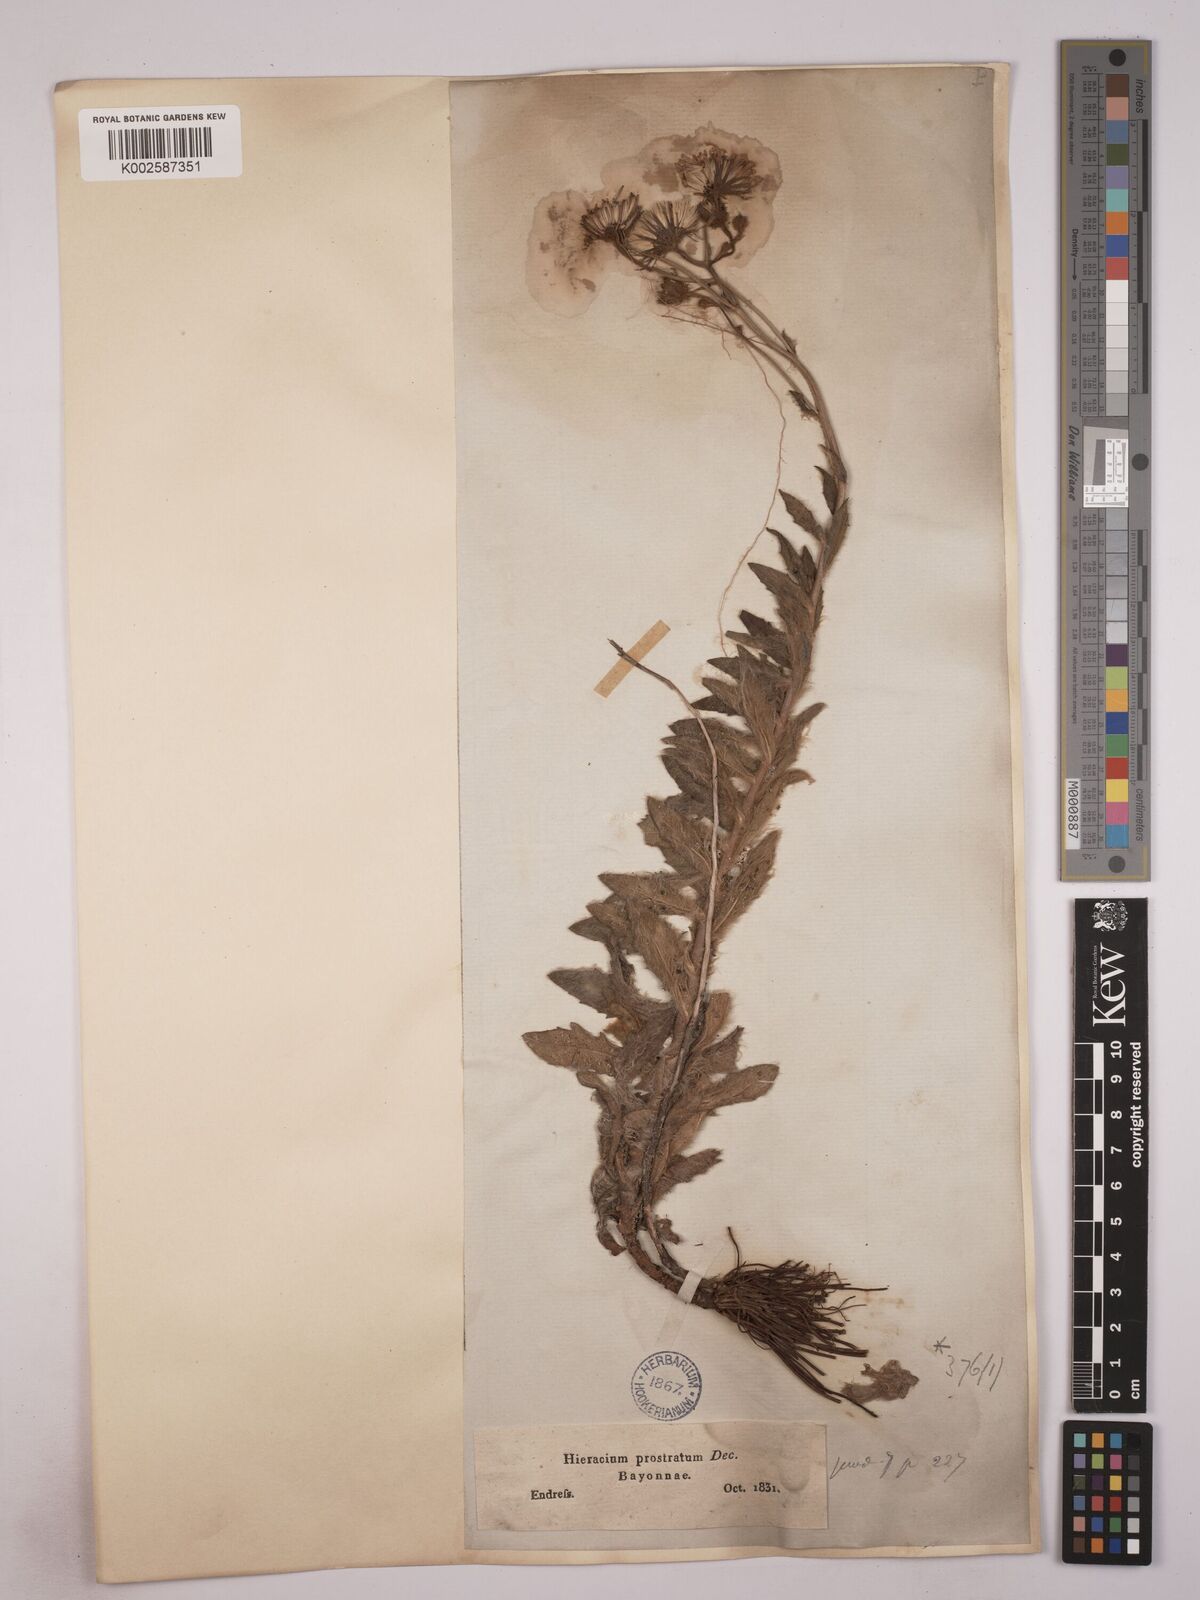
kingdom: Plantae
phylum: Tracheophyta
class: Magnoliopsida
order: Asterales
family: Asteraceae
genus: Hieracium
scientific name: Hieracium prostratum
